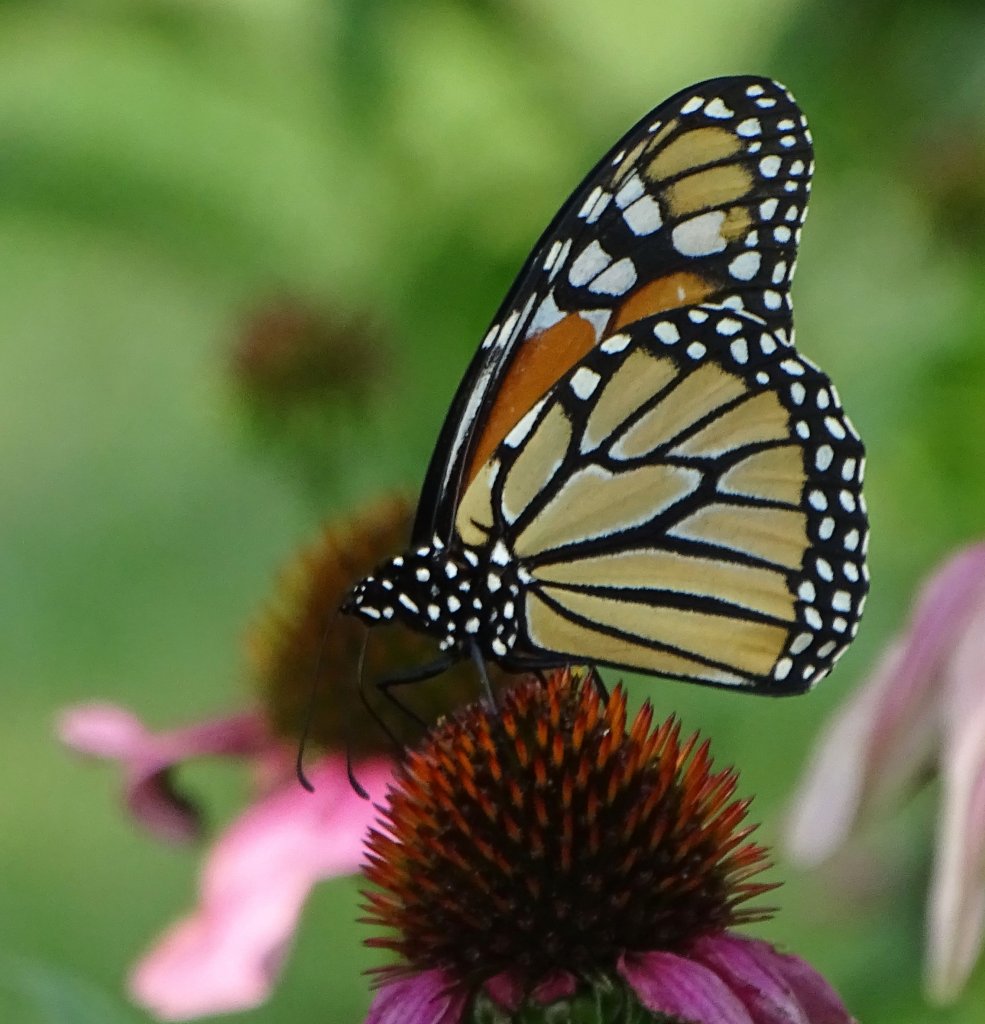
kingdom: Animalia
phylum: Arthropoda
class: Insecta
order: Lepidoptera
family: Nymphalidae
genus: Danaus
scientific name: Danaus plexippus
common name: Monarch
